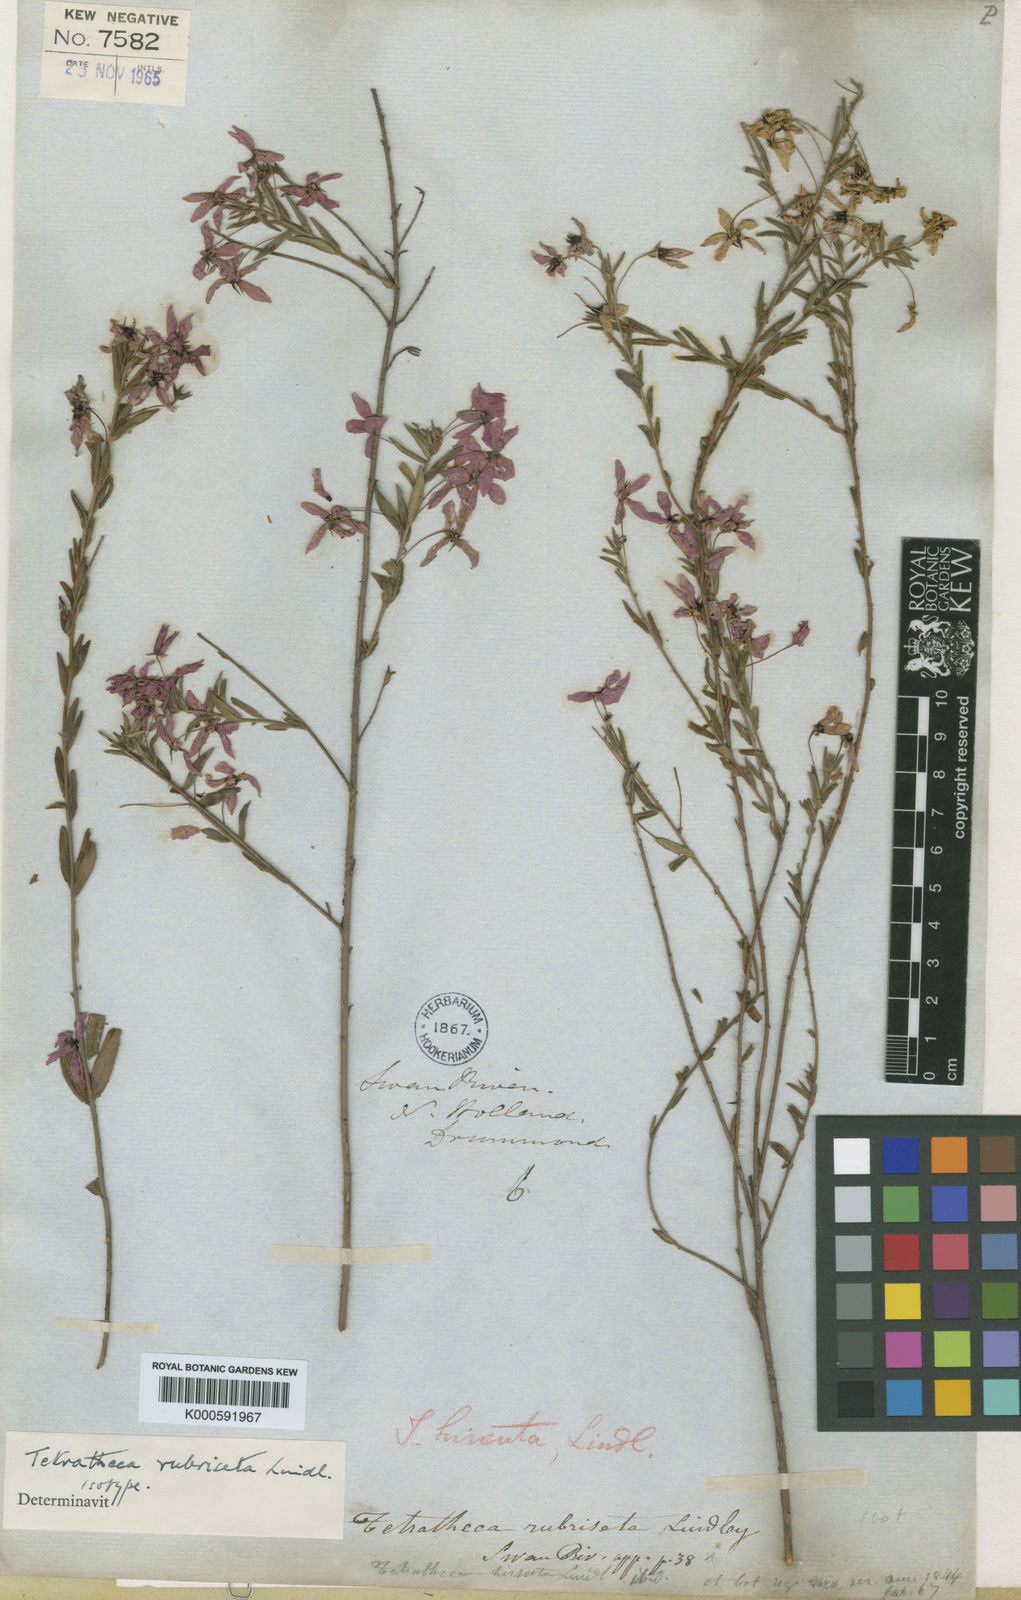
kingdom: Plantae
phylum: Tracheophyta
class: Magnoliopsida
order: Oxalidales
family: Elaeocarpaceae
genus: Tetratheca
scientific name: Tetratheca hirsuta
